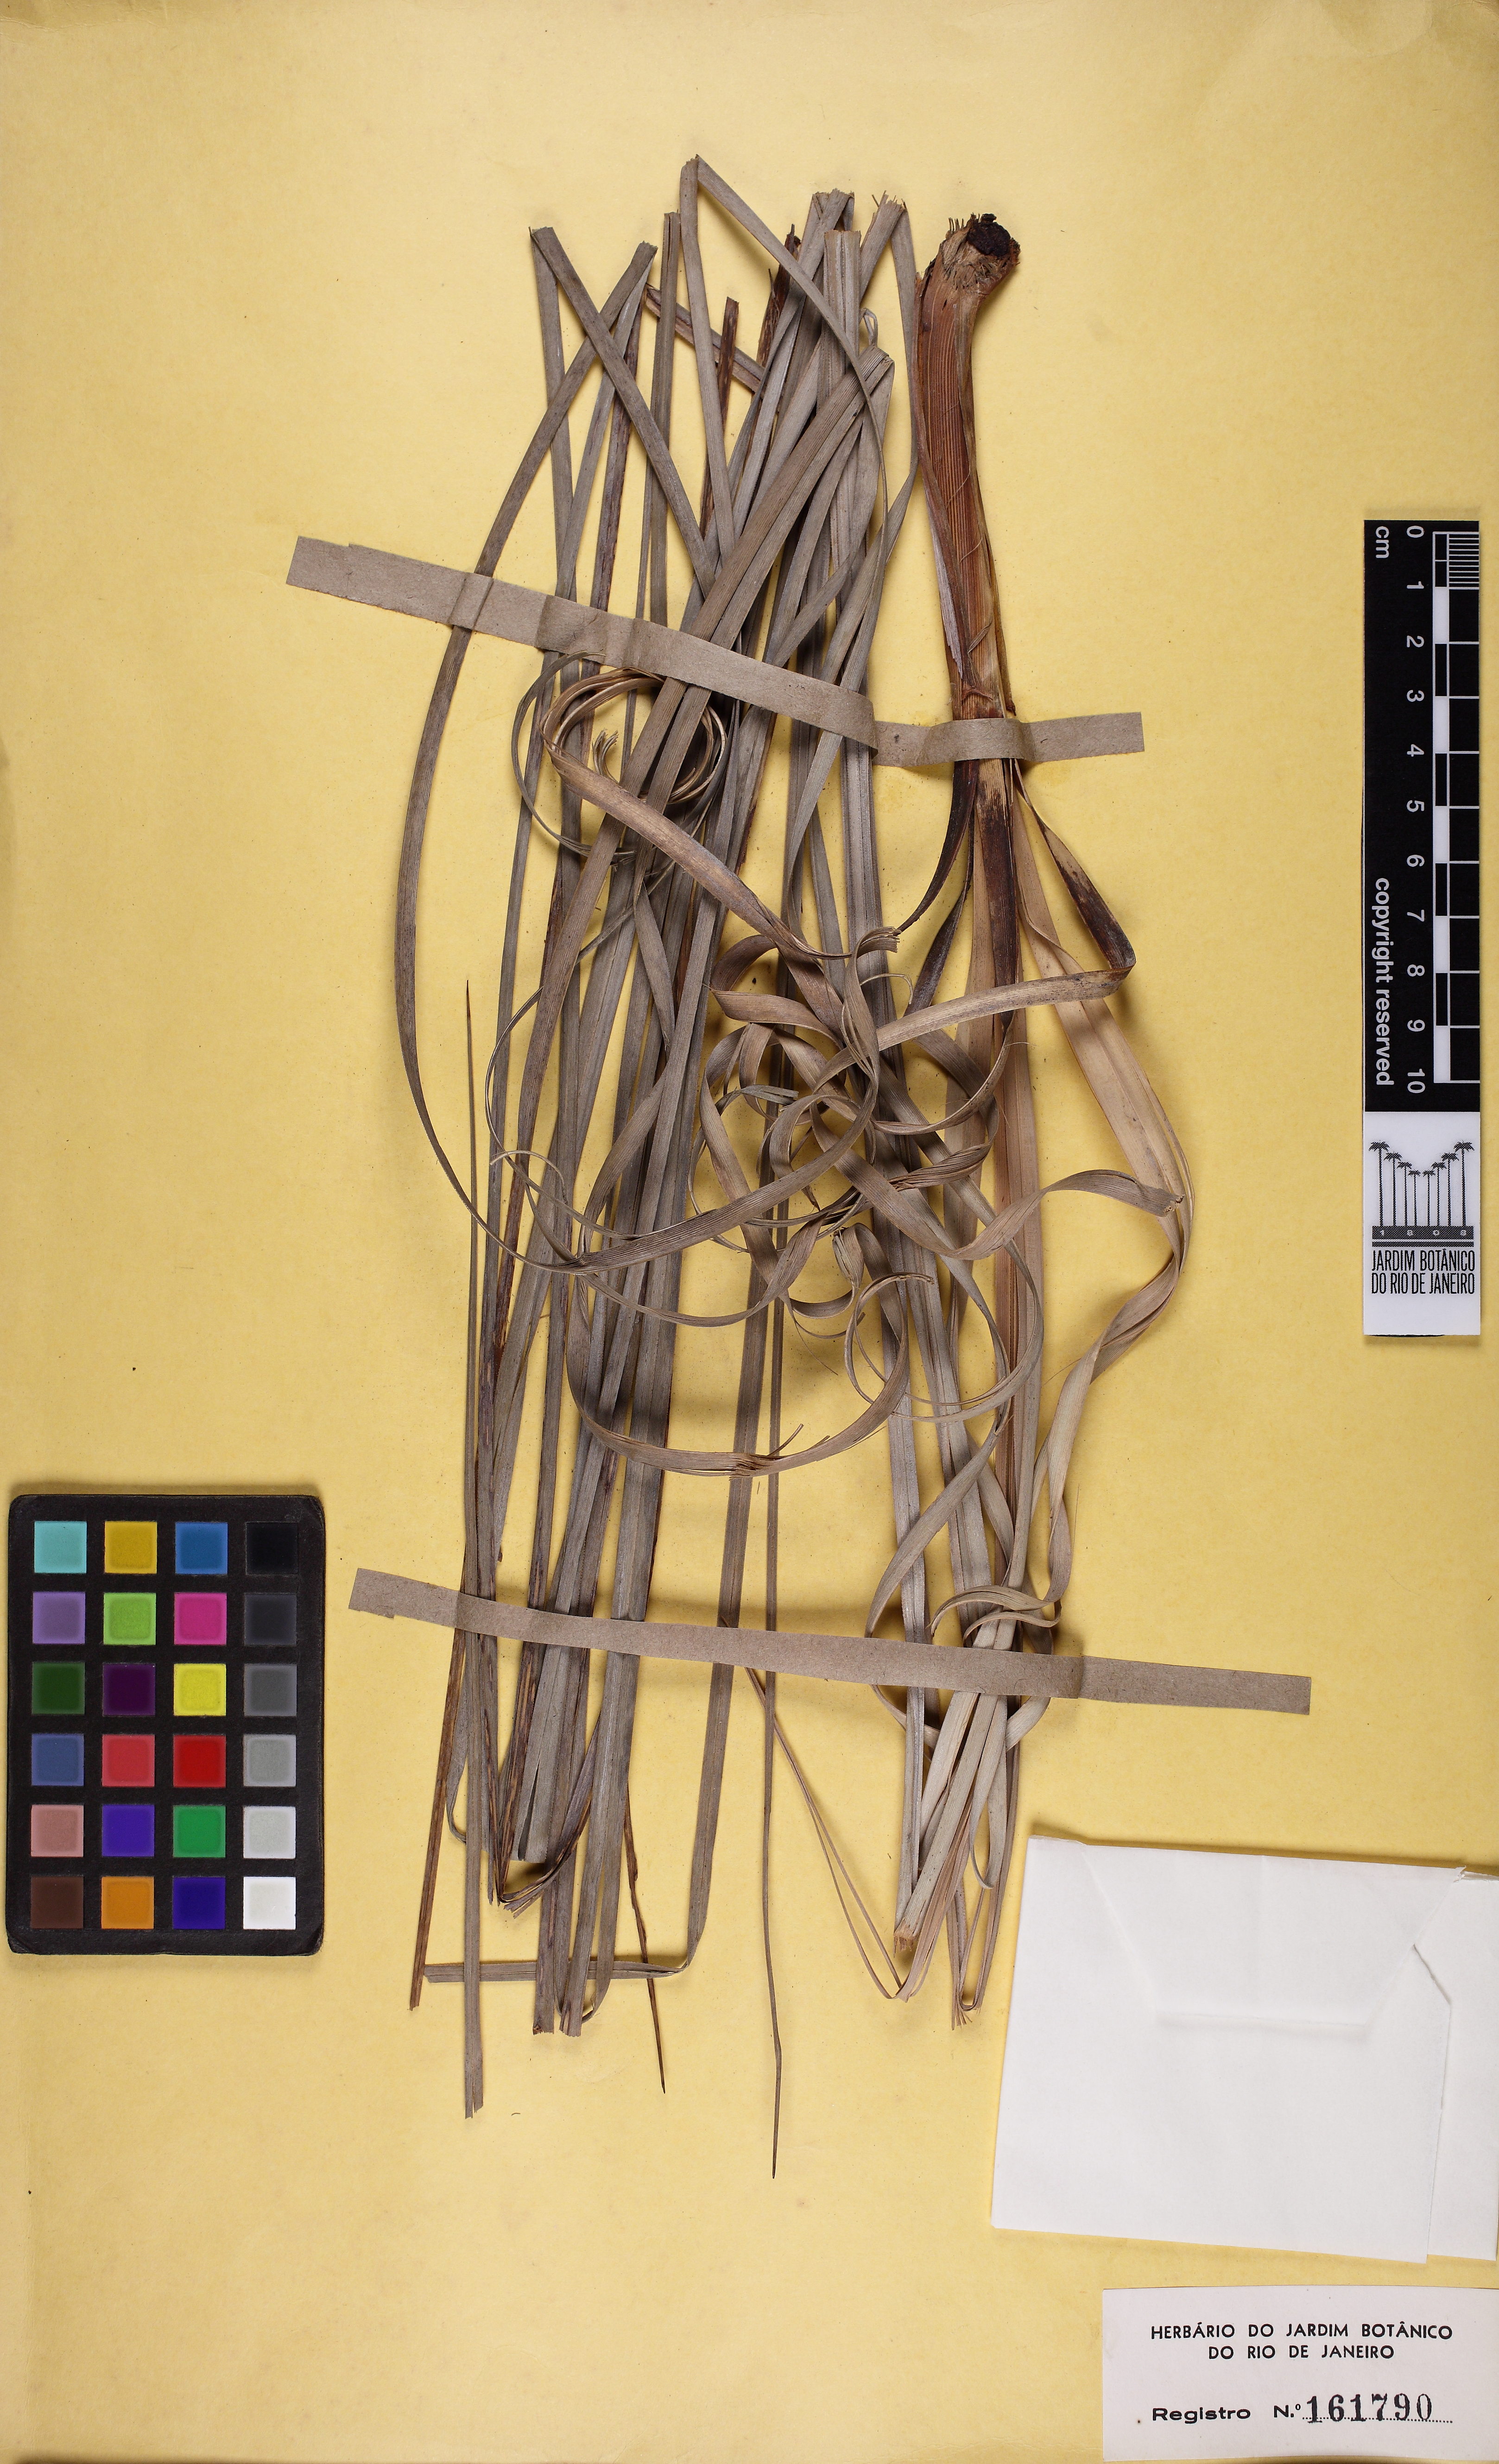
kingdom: Plantae
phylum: Tracheophyta
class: Liliopsida
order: Poales
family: Cyperaceae
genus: Lagenocarpus
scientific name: Lagenocarpus rigidus
